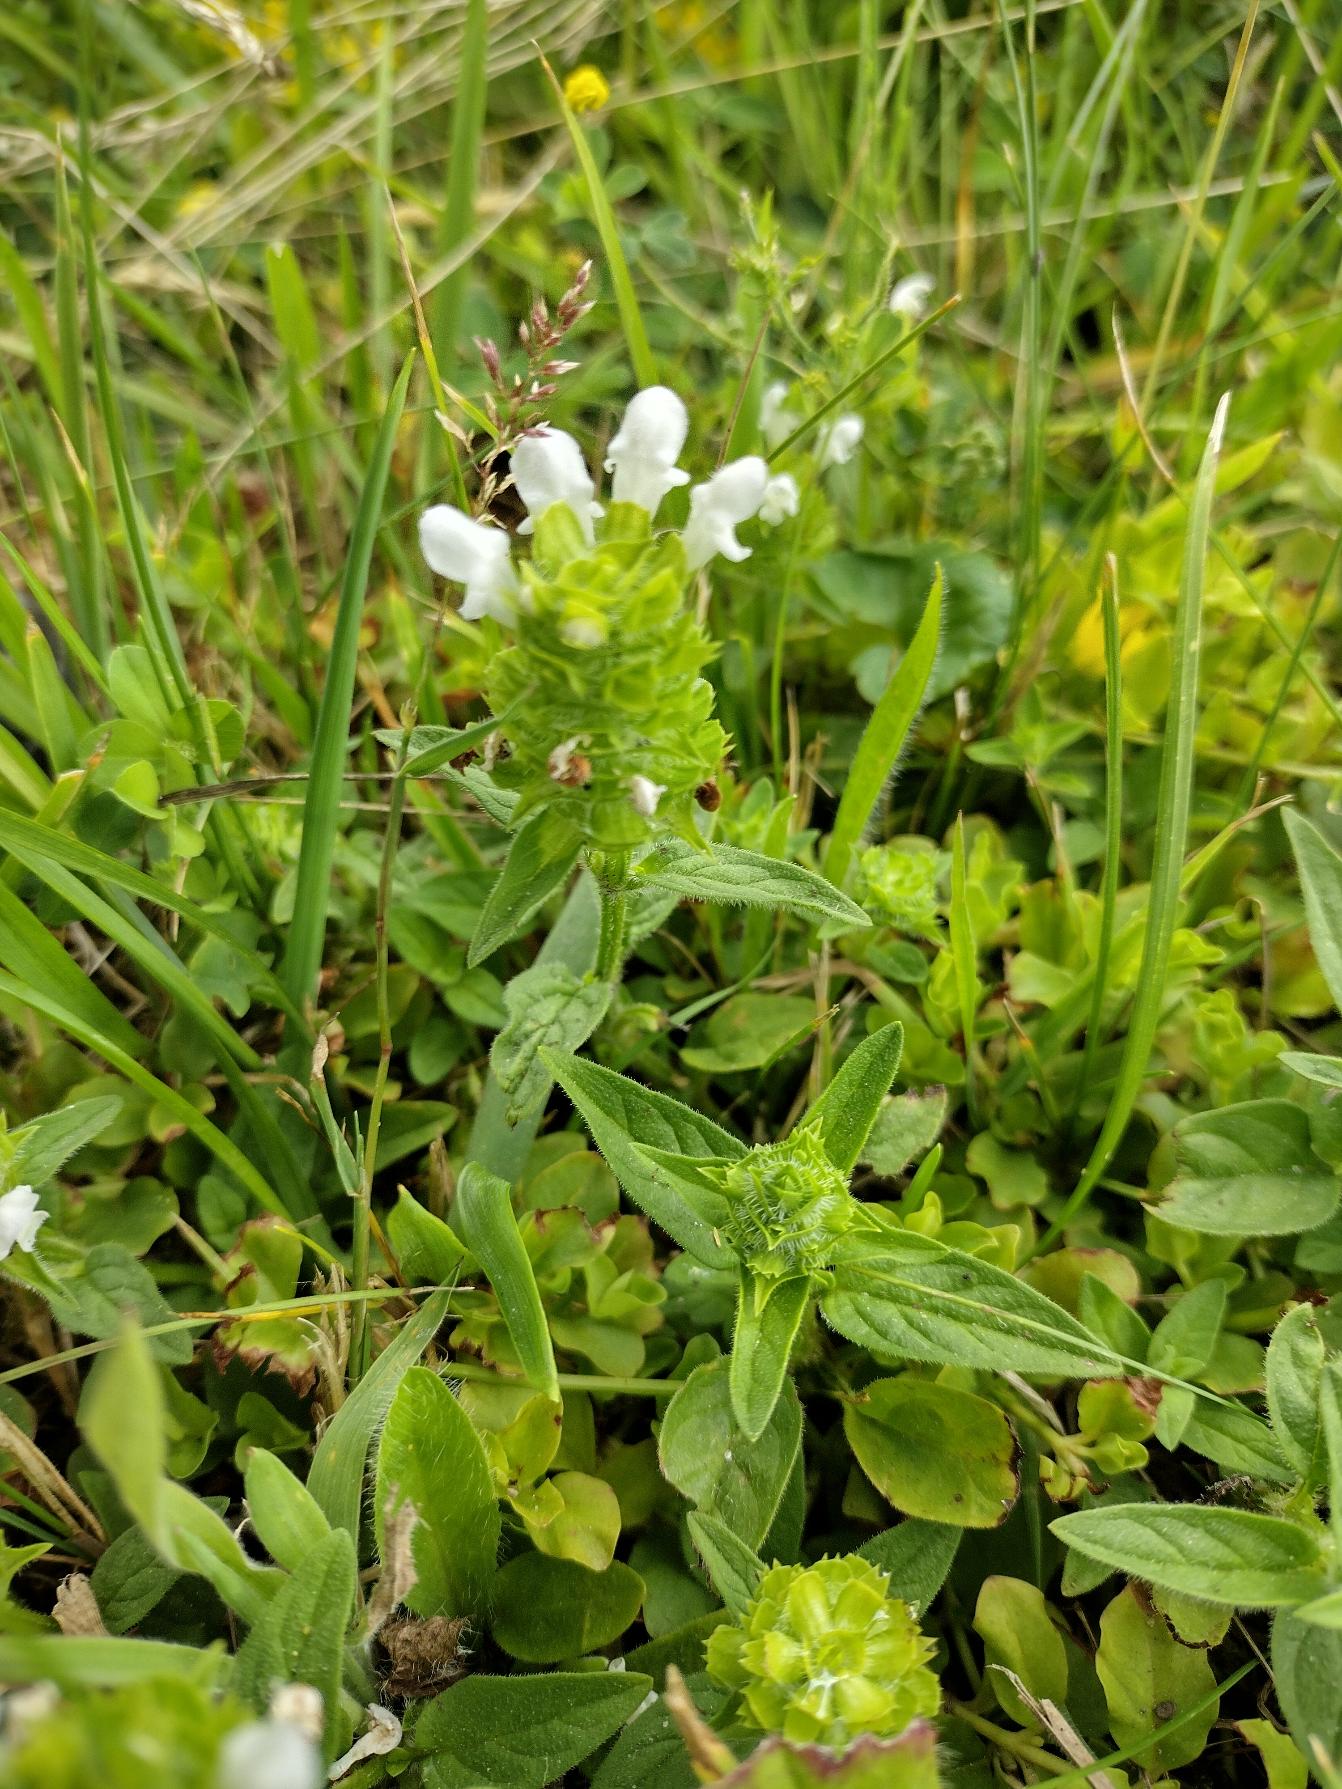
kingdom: Plantae
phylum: Tracheophyta
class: Magnoliopsida
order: Lamiales
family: Lamiaceae
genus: Prunella
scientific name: Prunella vulgaris
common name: Almindelig brunelle
